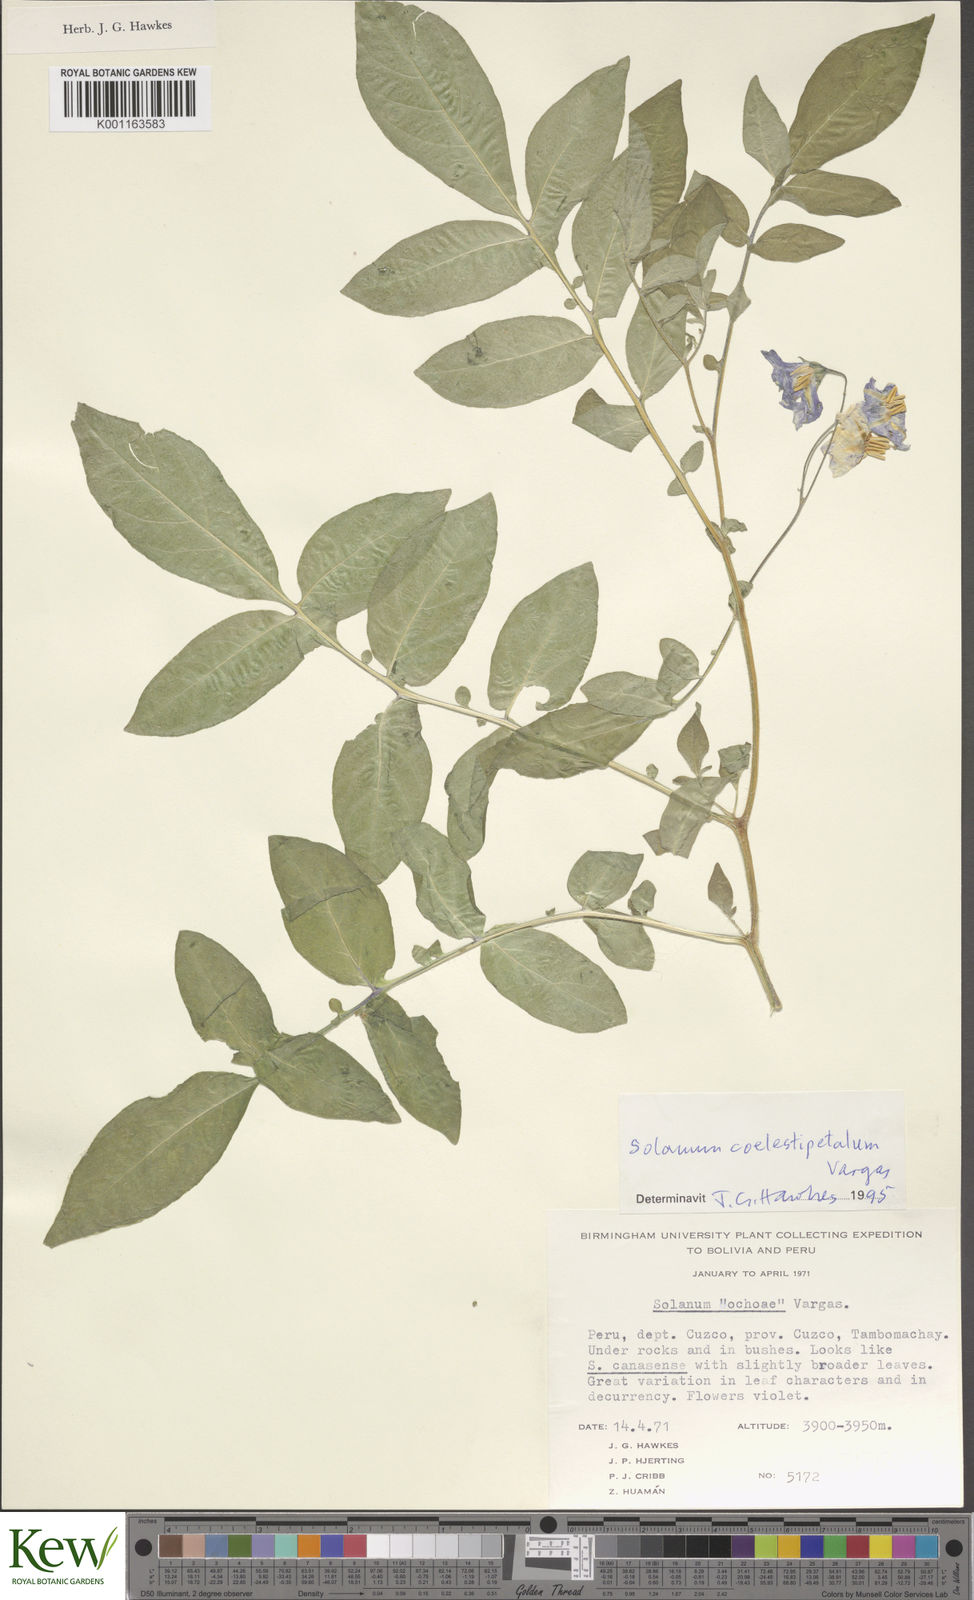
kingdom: Plantae
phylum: Tracheophyta
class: Magnoliopsida
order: Solanales
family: Solanaceae
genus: Solanum
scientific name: Solanum brevicaule
